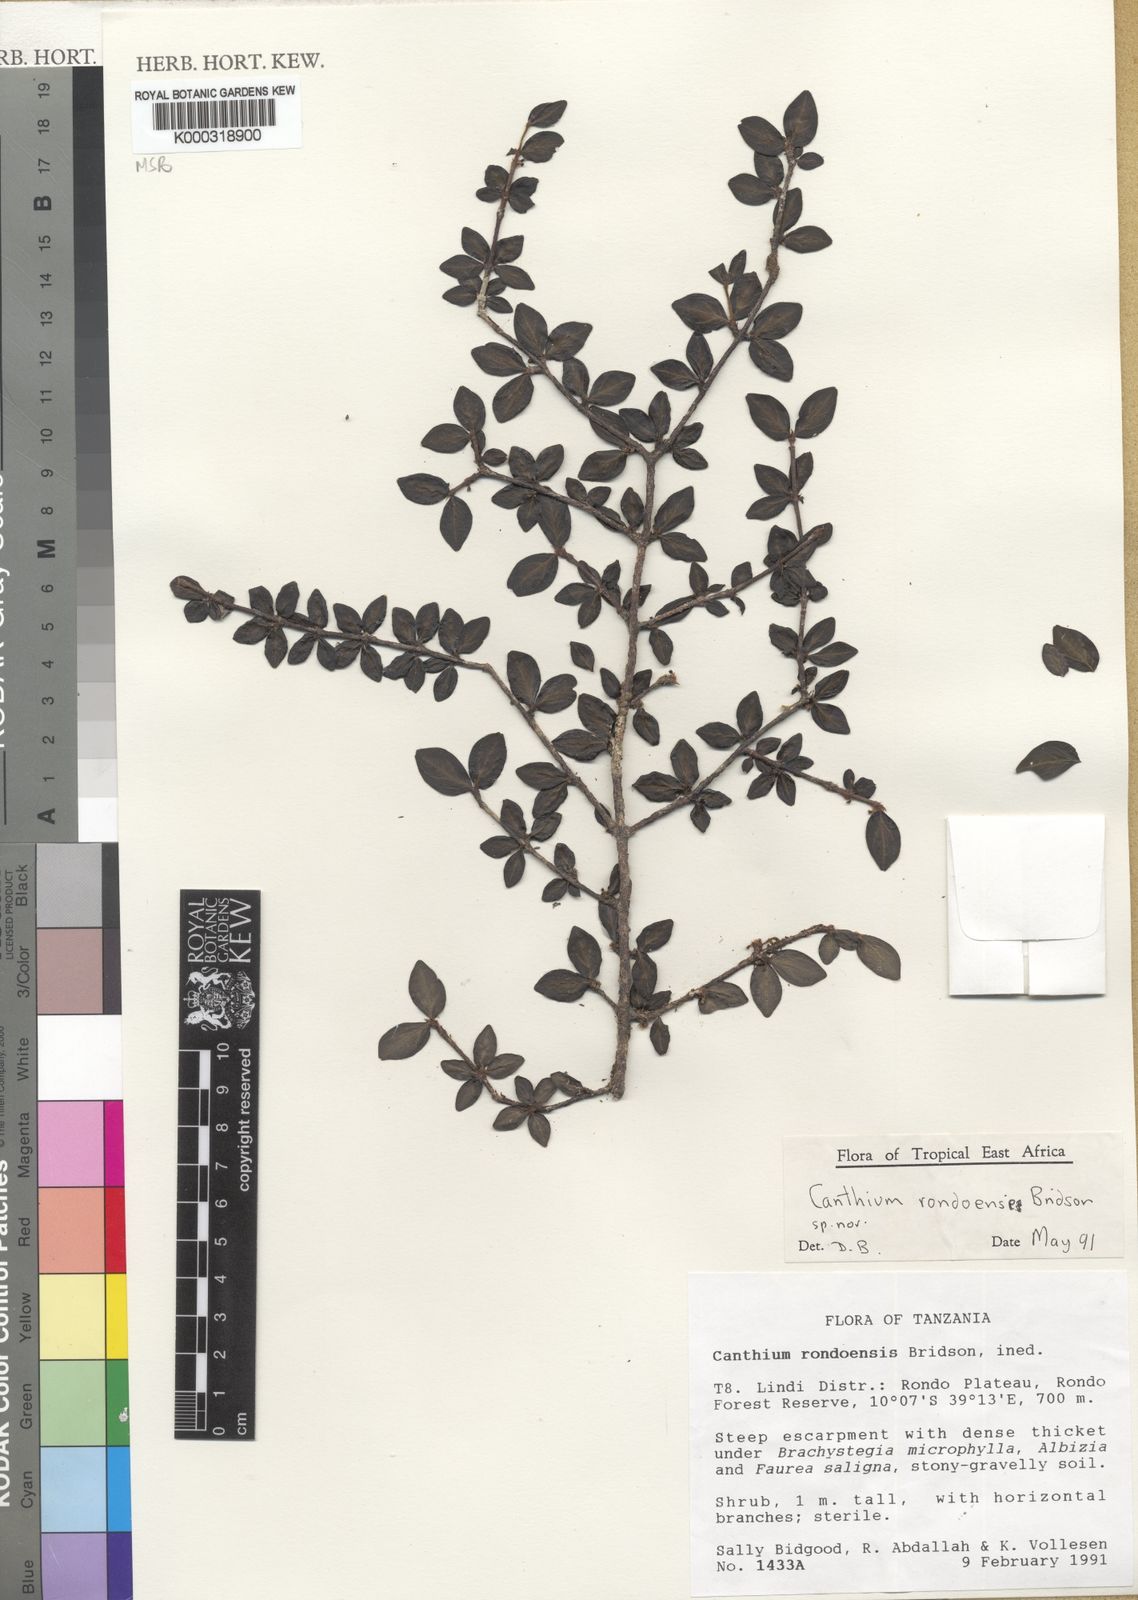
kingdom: Plantae
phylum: Tracheophyta
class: Magnoliopsida
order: Gentianales
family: Rubiaceae
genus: Afrocanthium
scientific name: Afrocanthium rondoense
